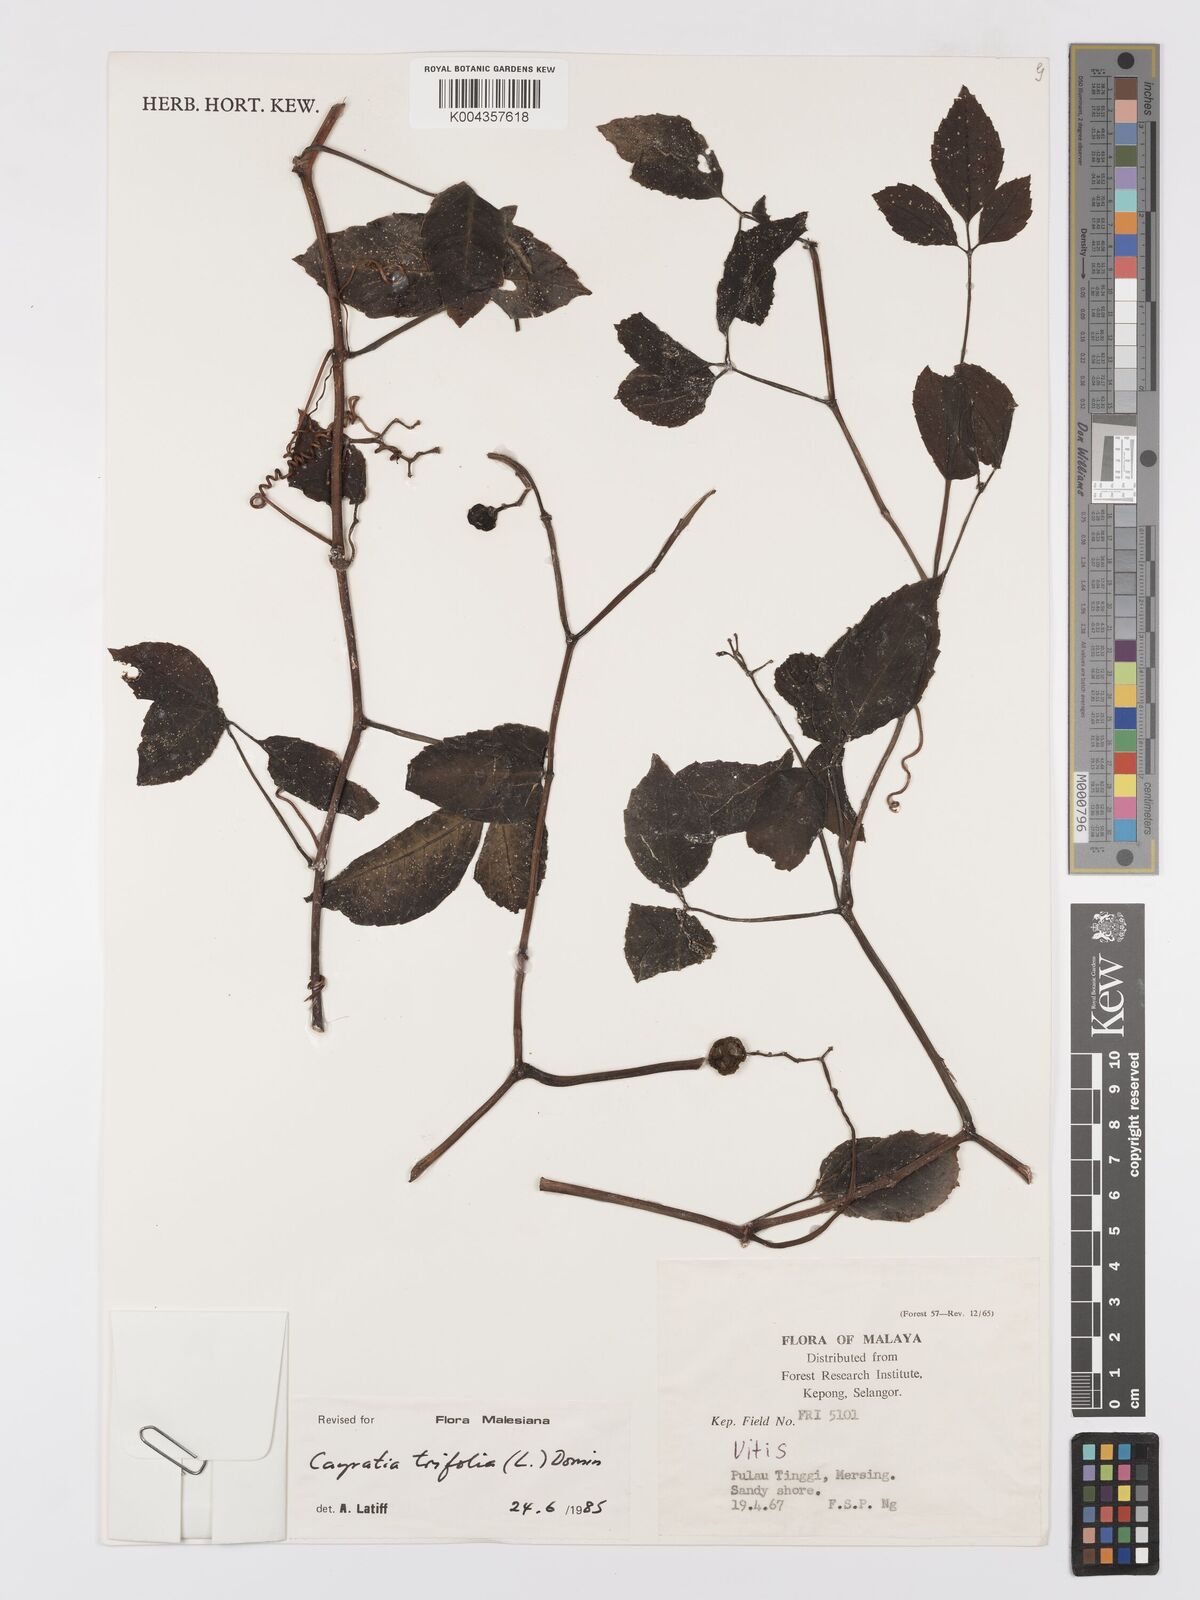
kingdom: Plantae
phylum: Tracheophyta
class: Magnoliopsida
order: Vitales
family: Vitaceae
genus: Causonis
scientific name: Causonis trifolia
